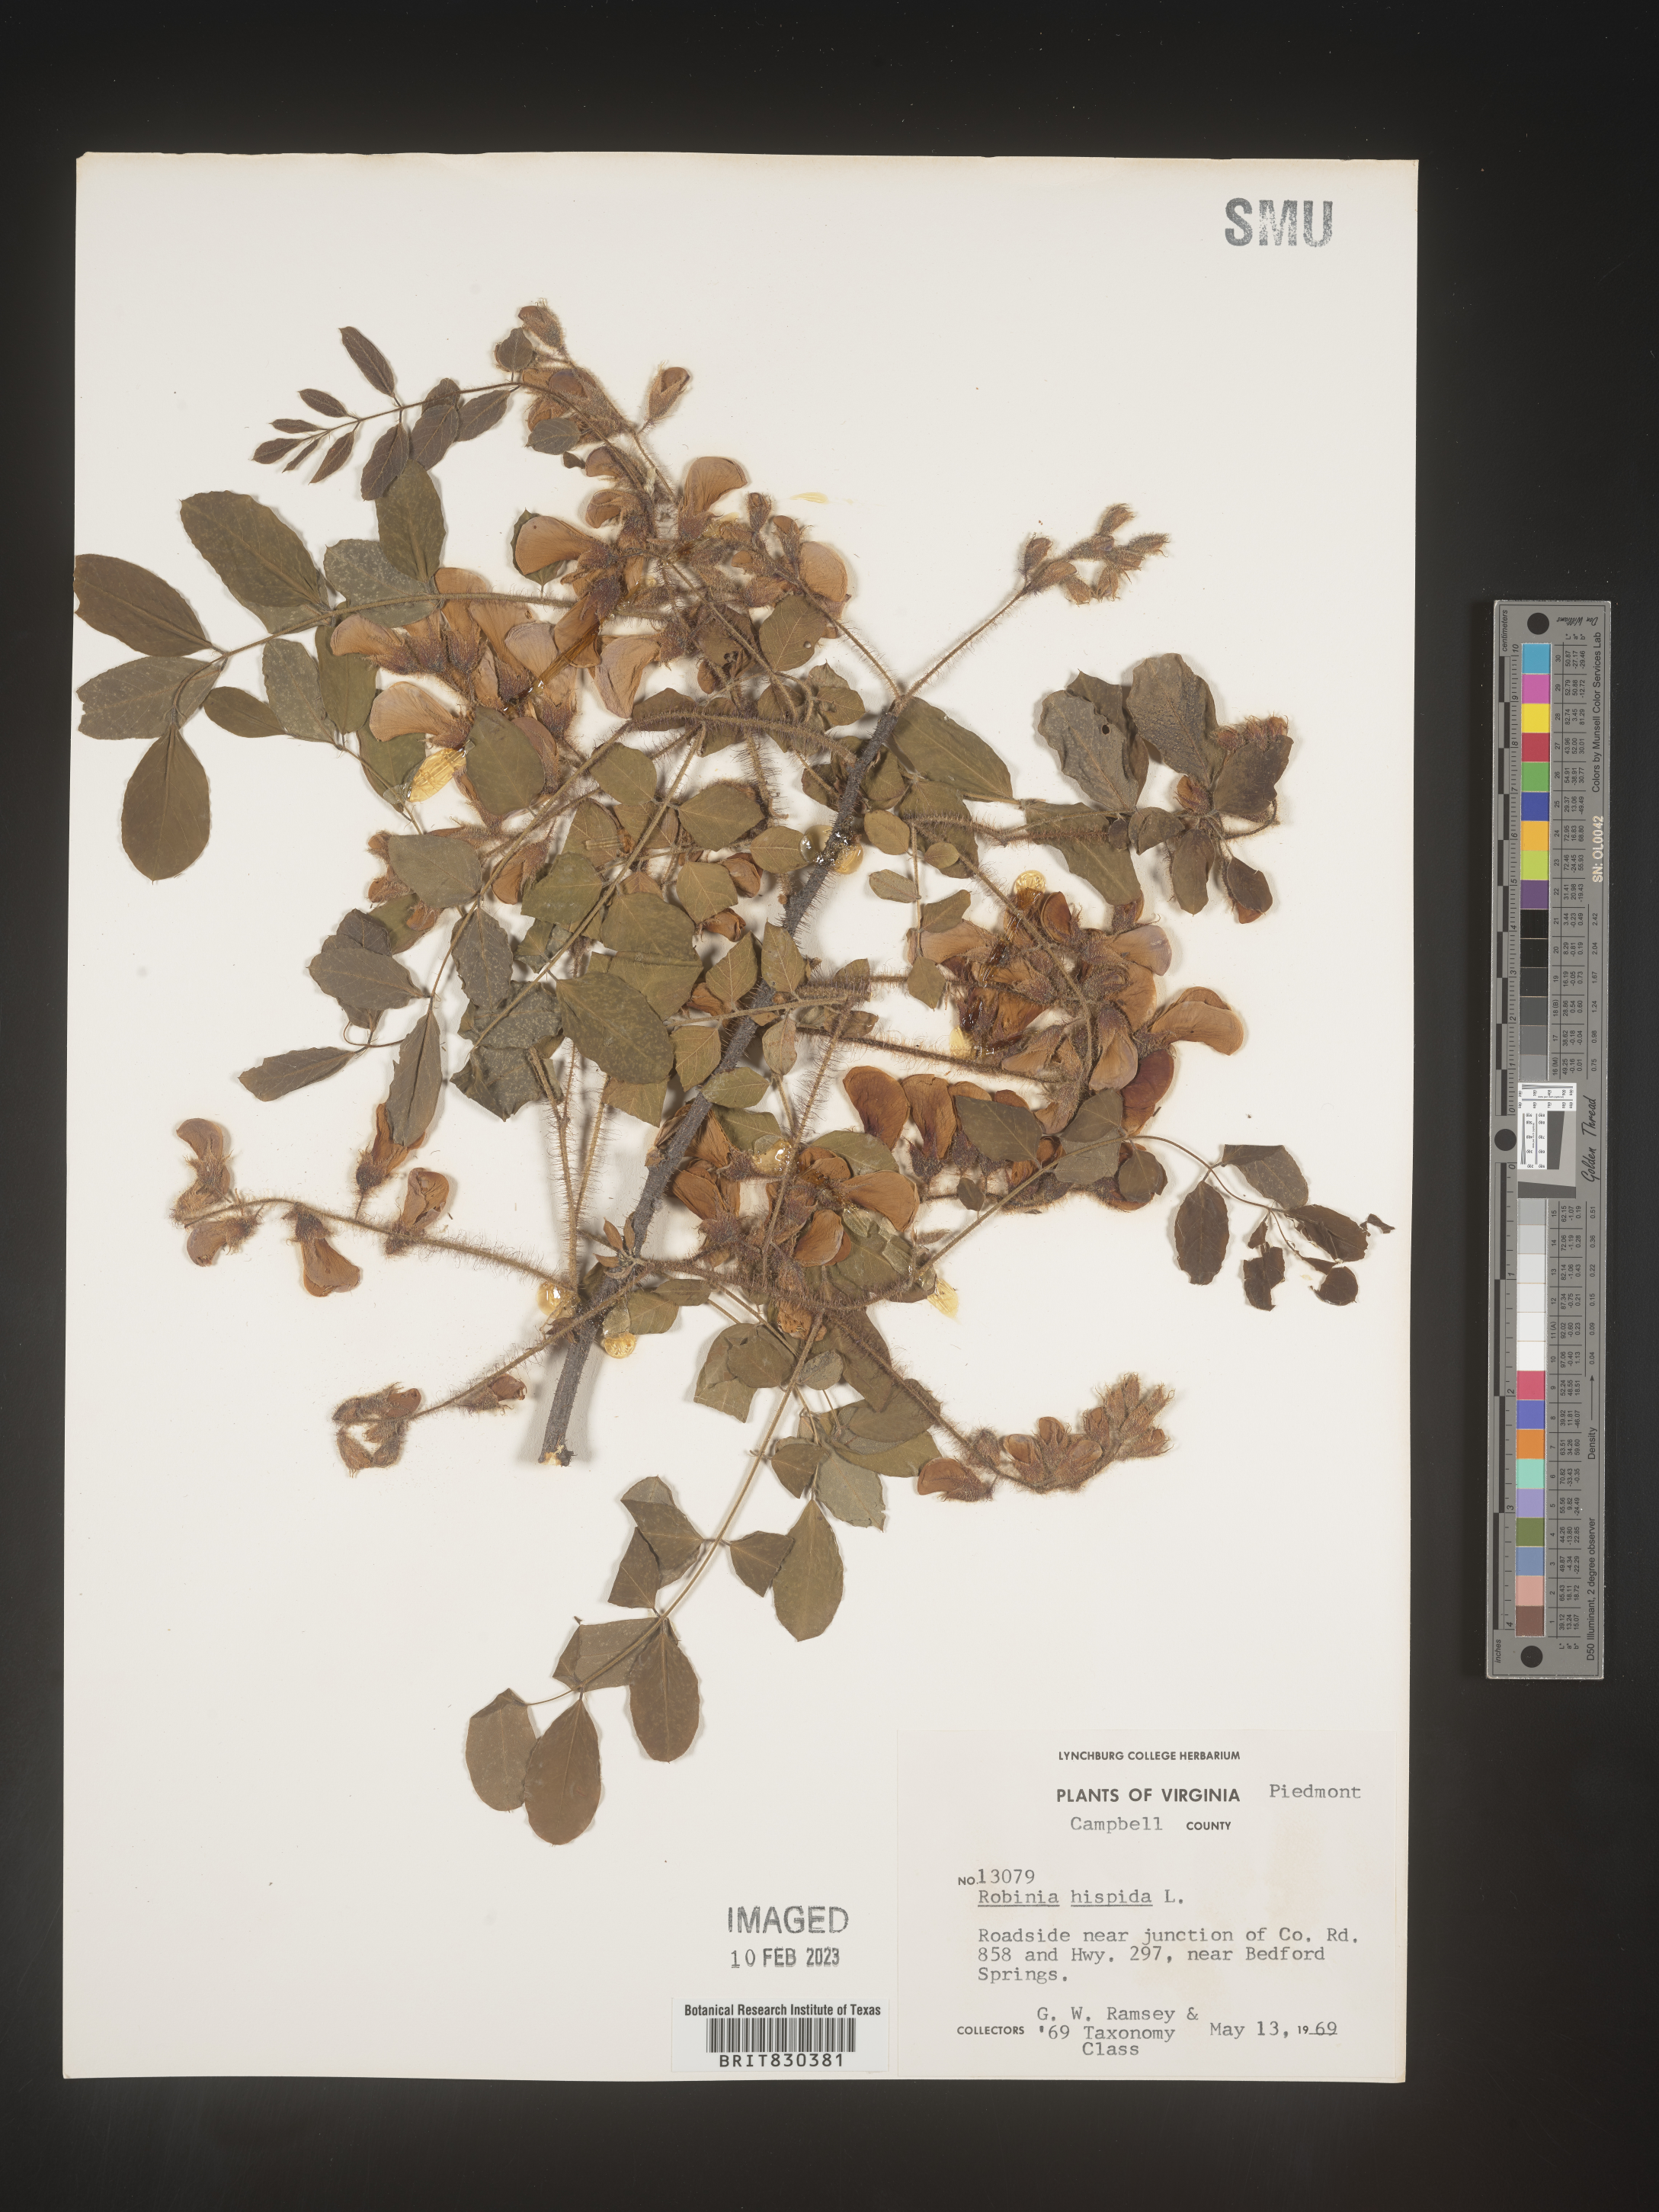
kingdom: Plantae
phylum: Tracheophyta
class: Magnoliopsida
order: Fabales
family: Fabaceae
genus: Robinia
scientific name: Robinia hispida
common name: Bristly locust
